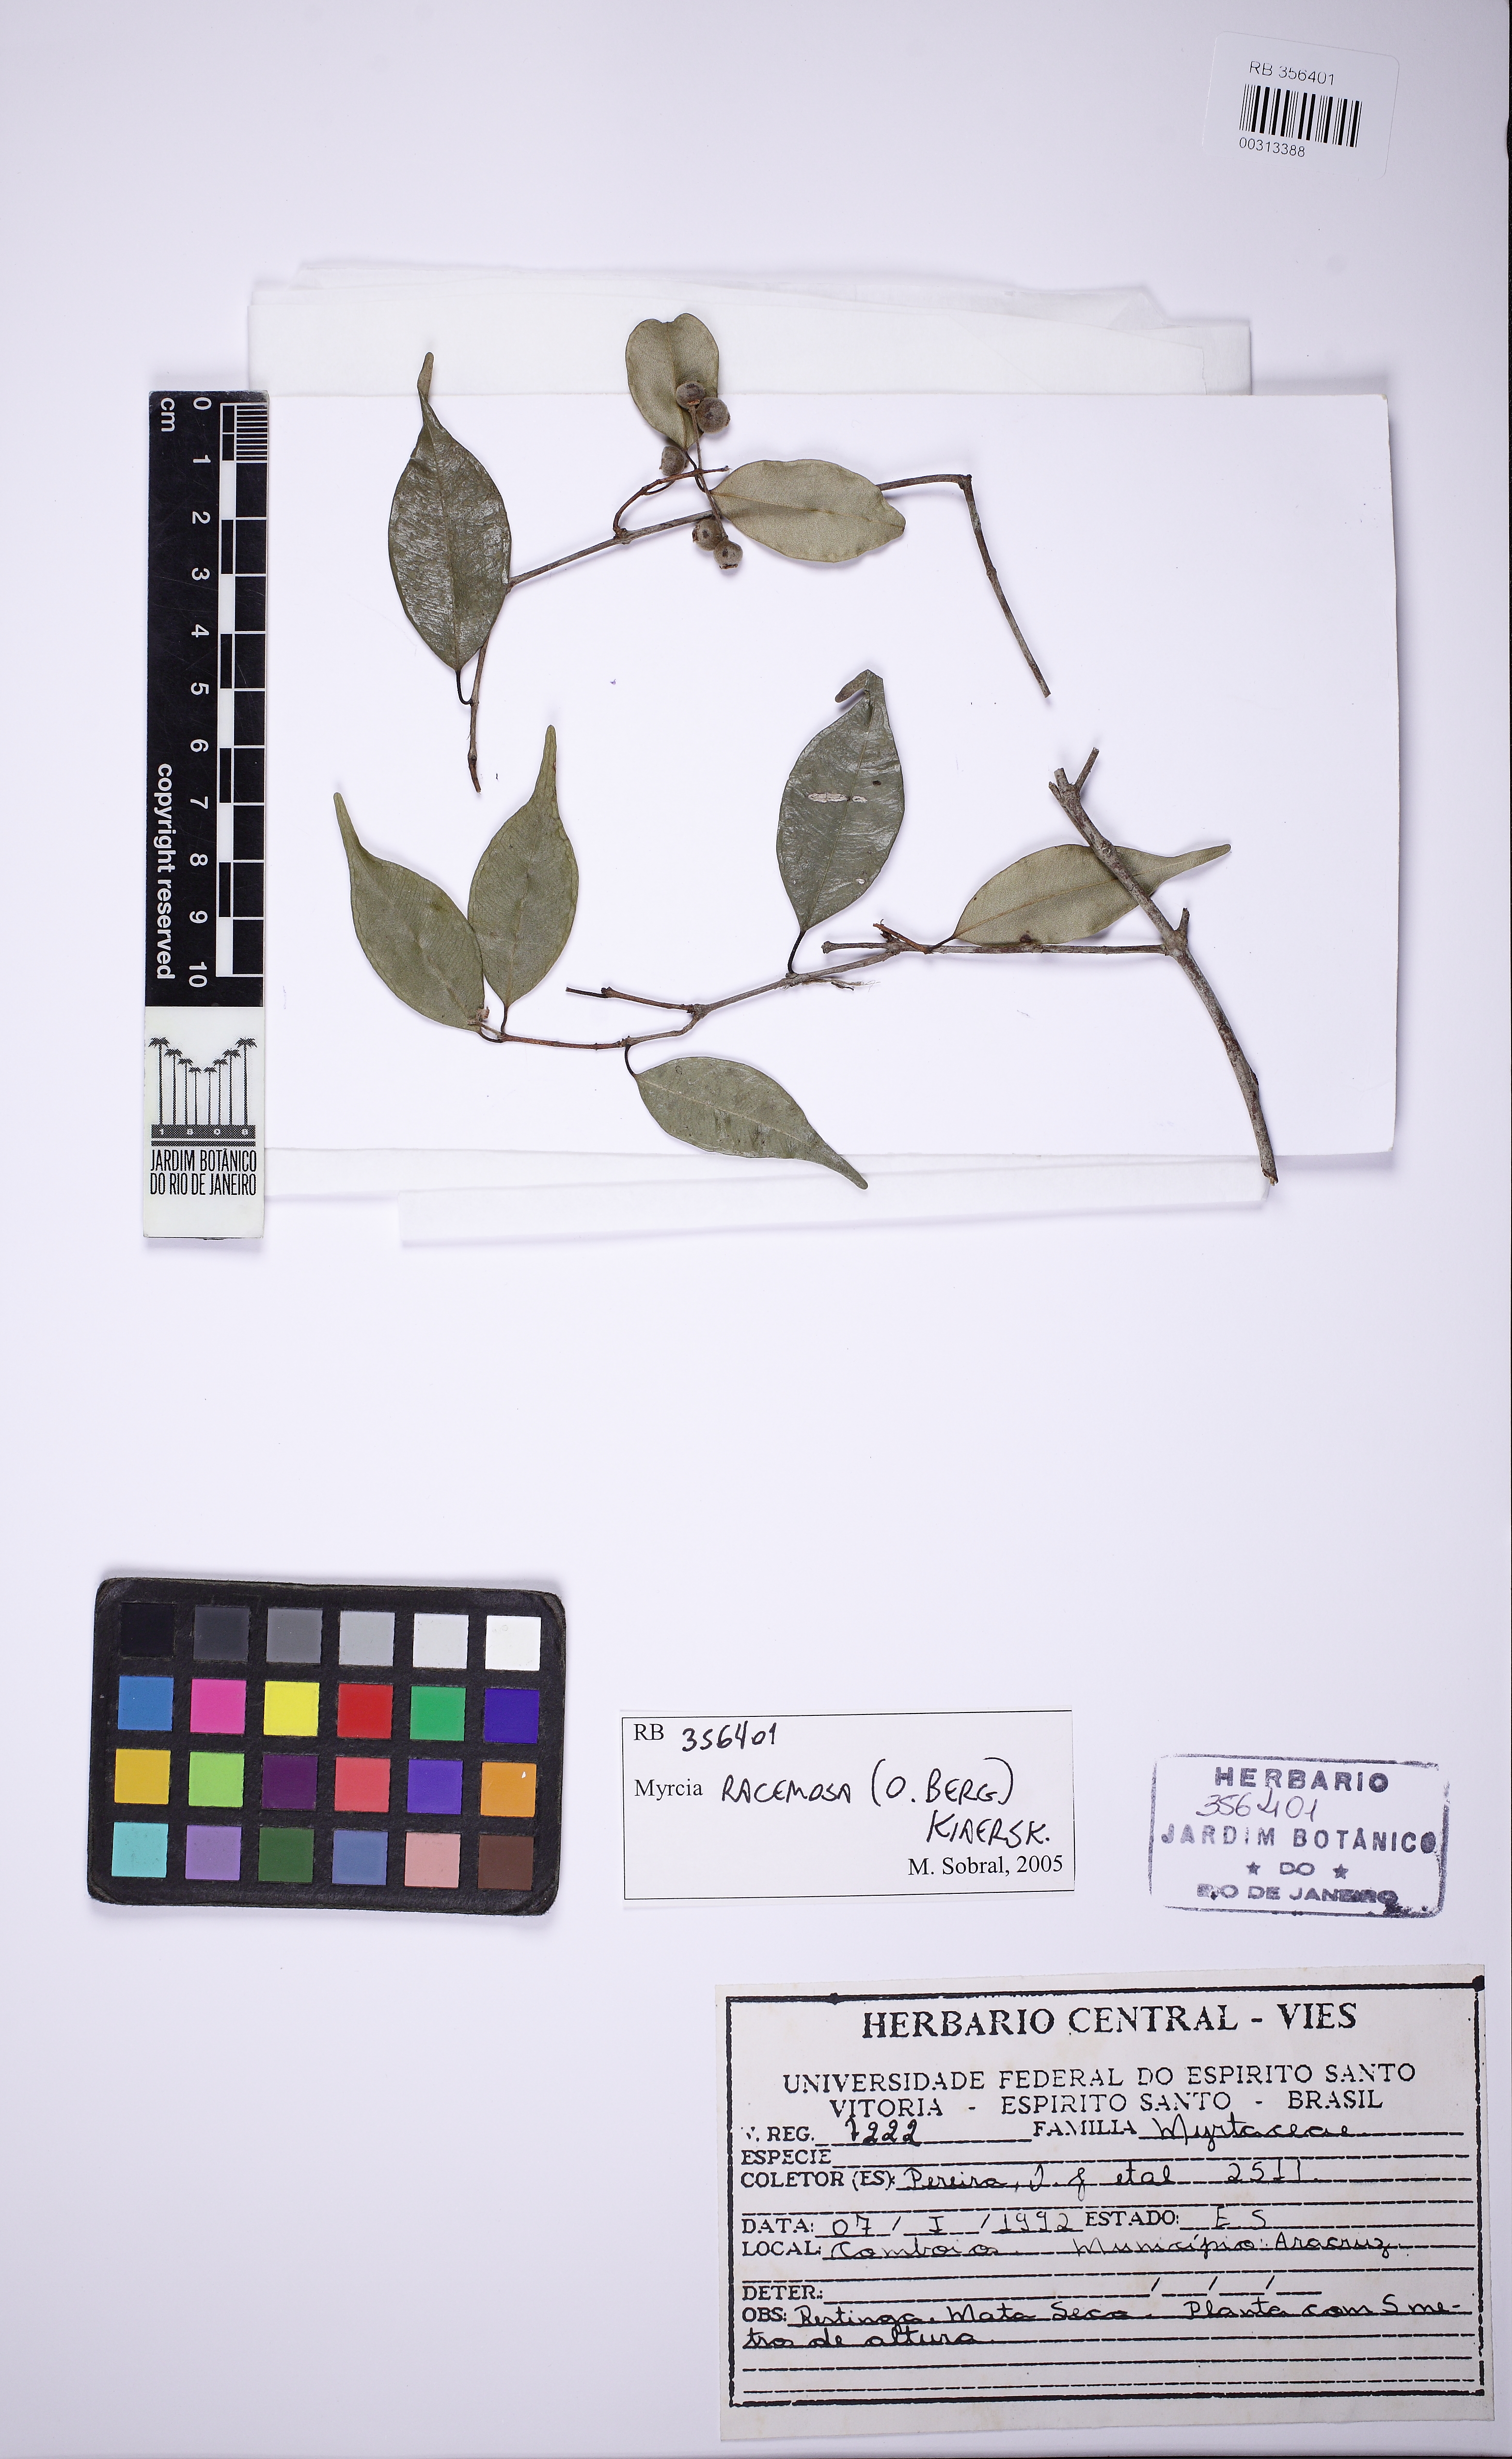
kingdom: Plantae
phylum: Tracheophyta
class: Magnoliopsida
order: Myrtales
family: Myrtaceae
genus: Myrcia
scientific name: Myrcia racemosa
